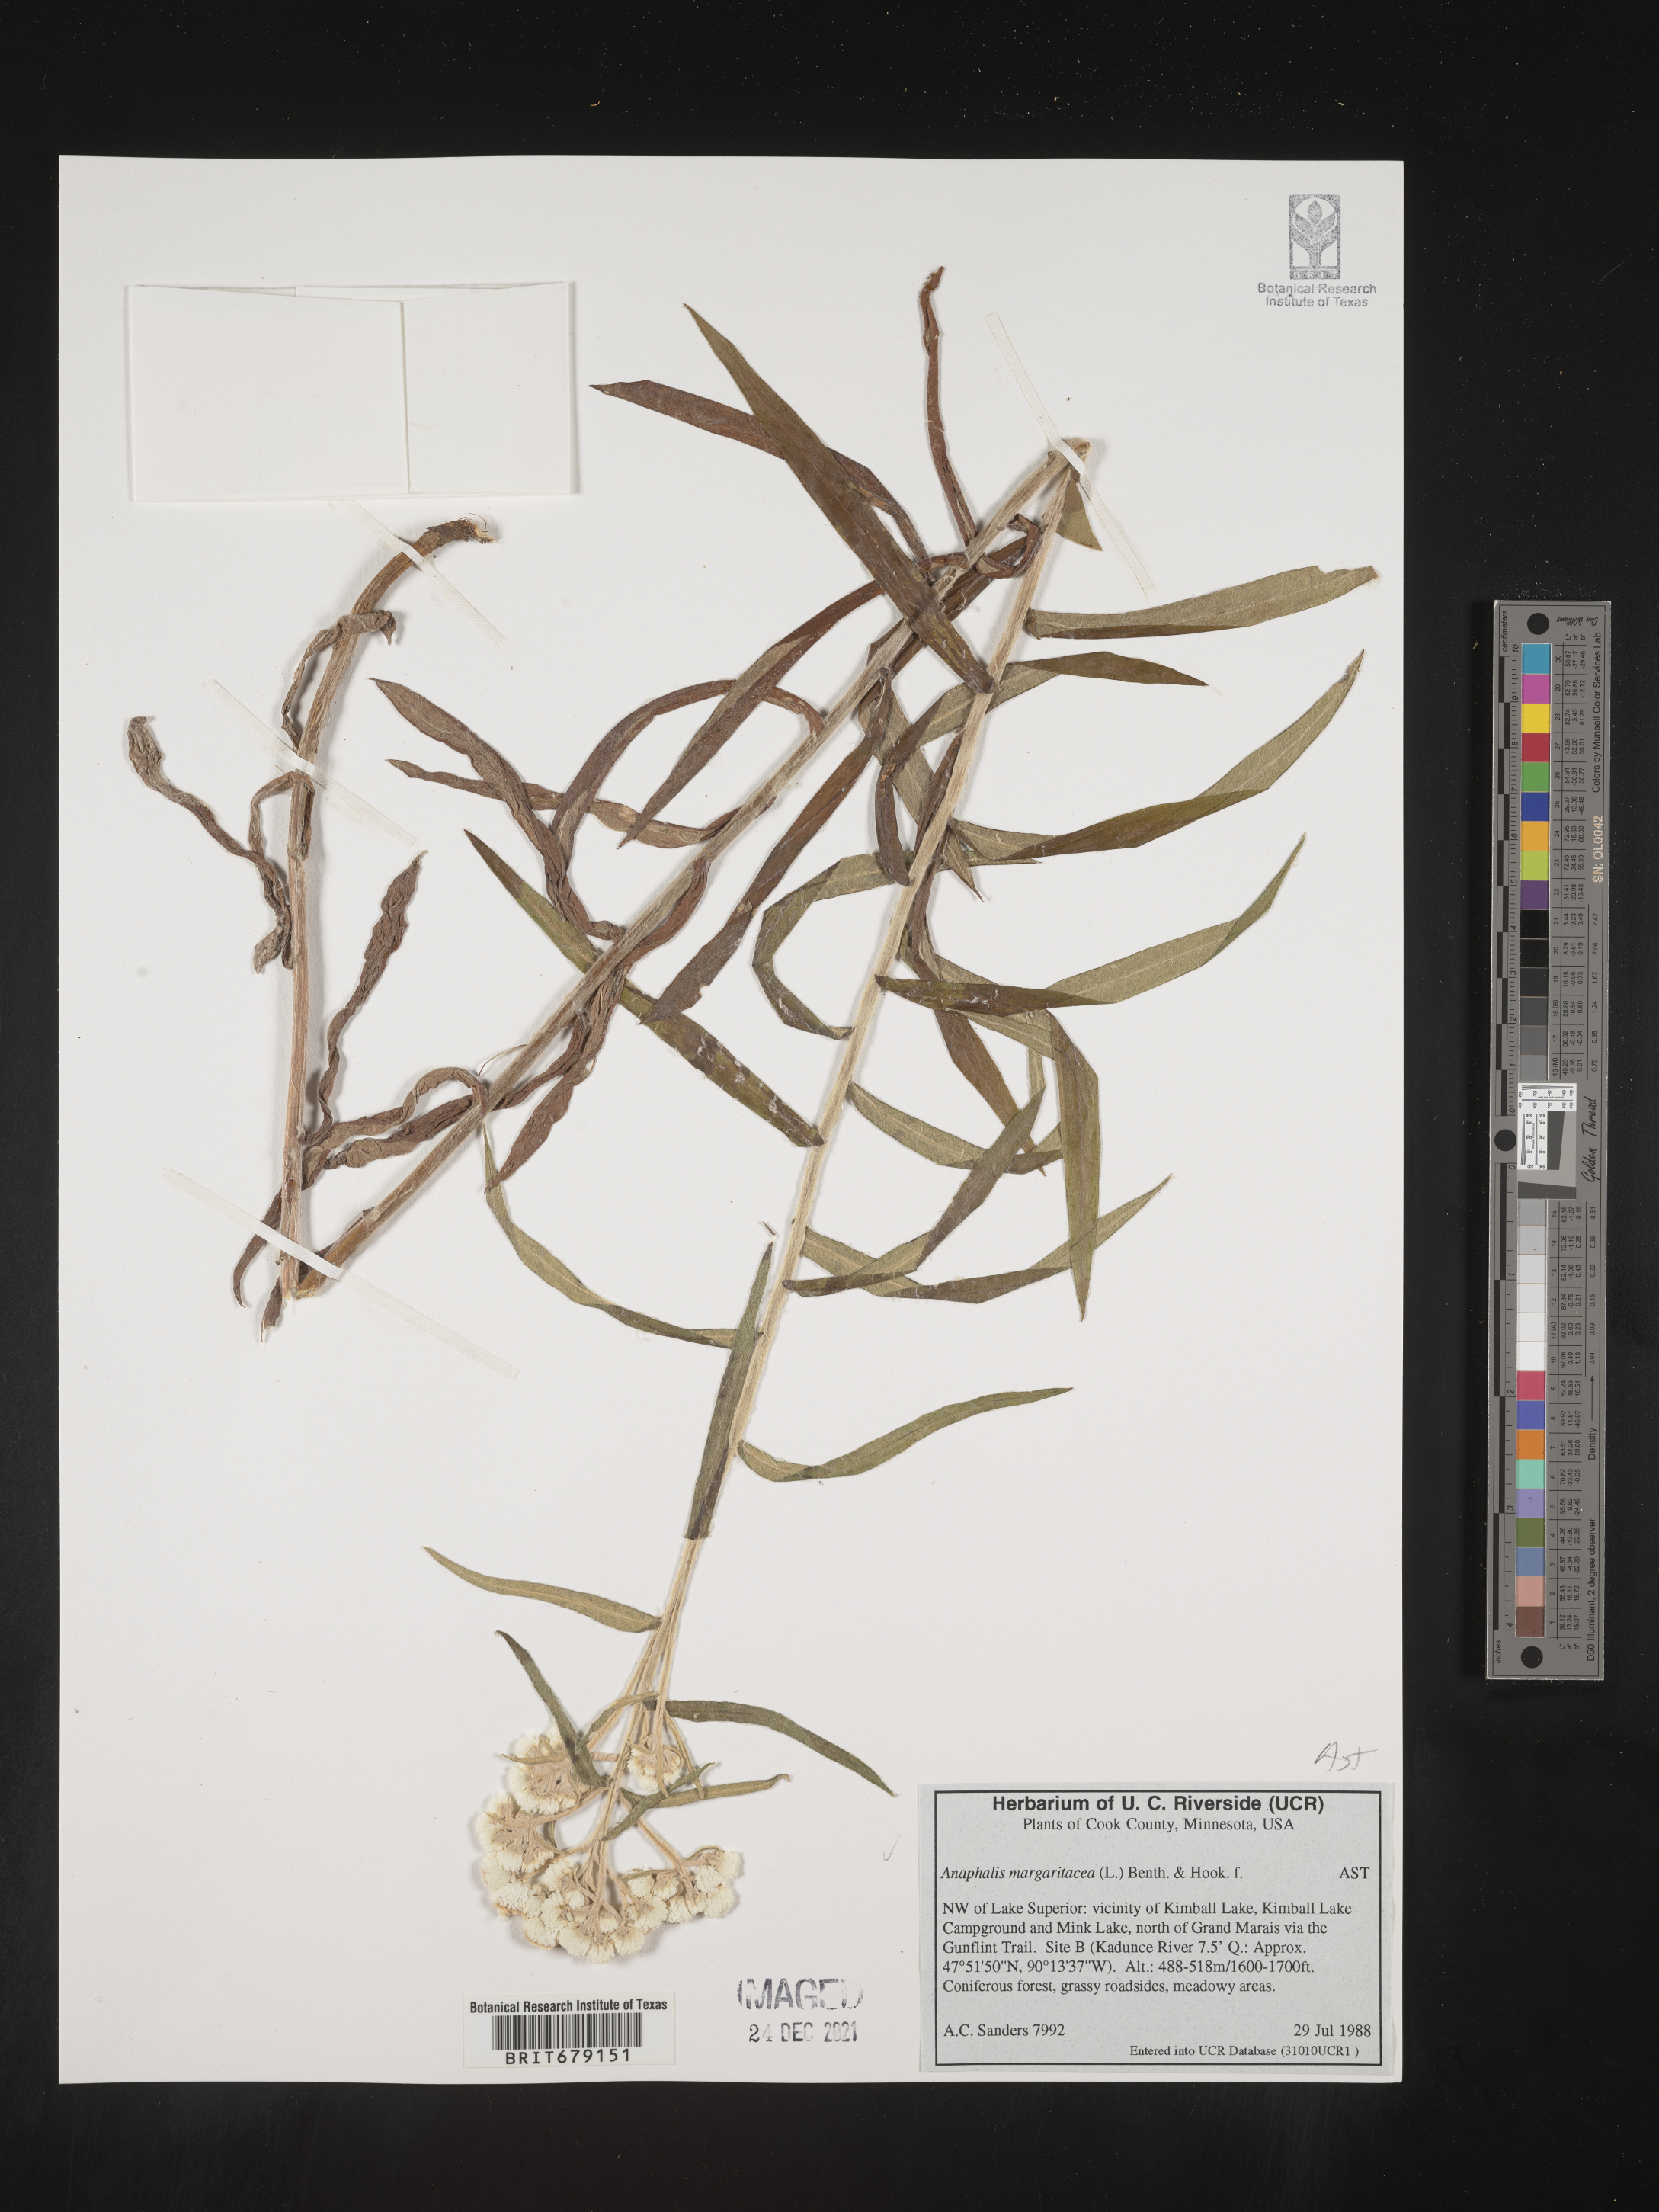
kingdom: Plantae
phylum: Tracheophyta
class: Magnoliopsida
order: Asterales
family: Asteraceae
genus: Anaphalis
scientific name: Anaphalis margaritacea
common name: Pearly everlasting
